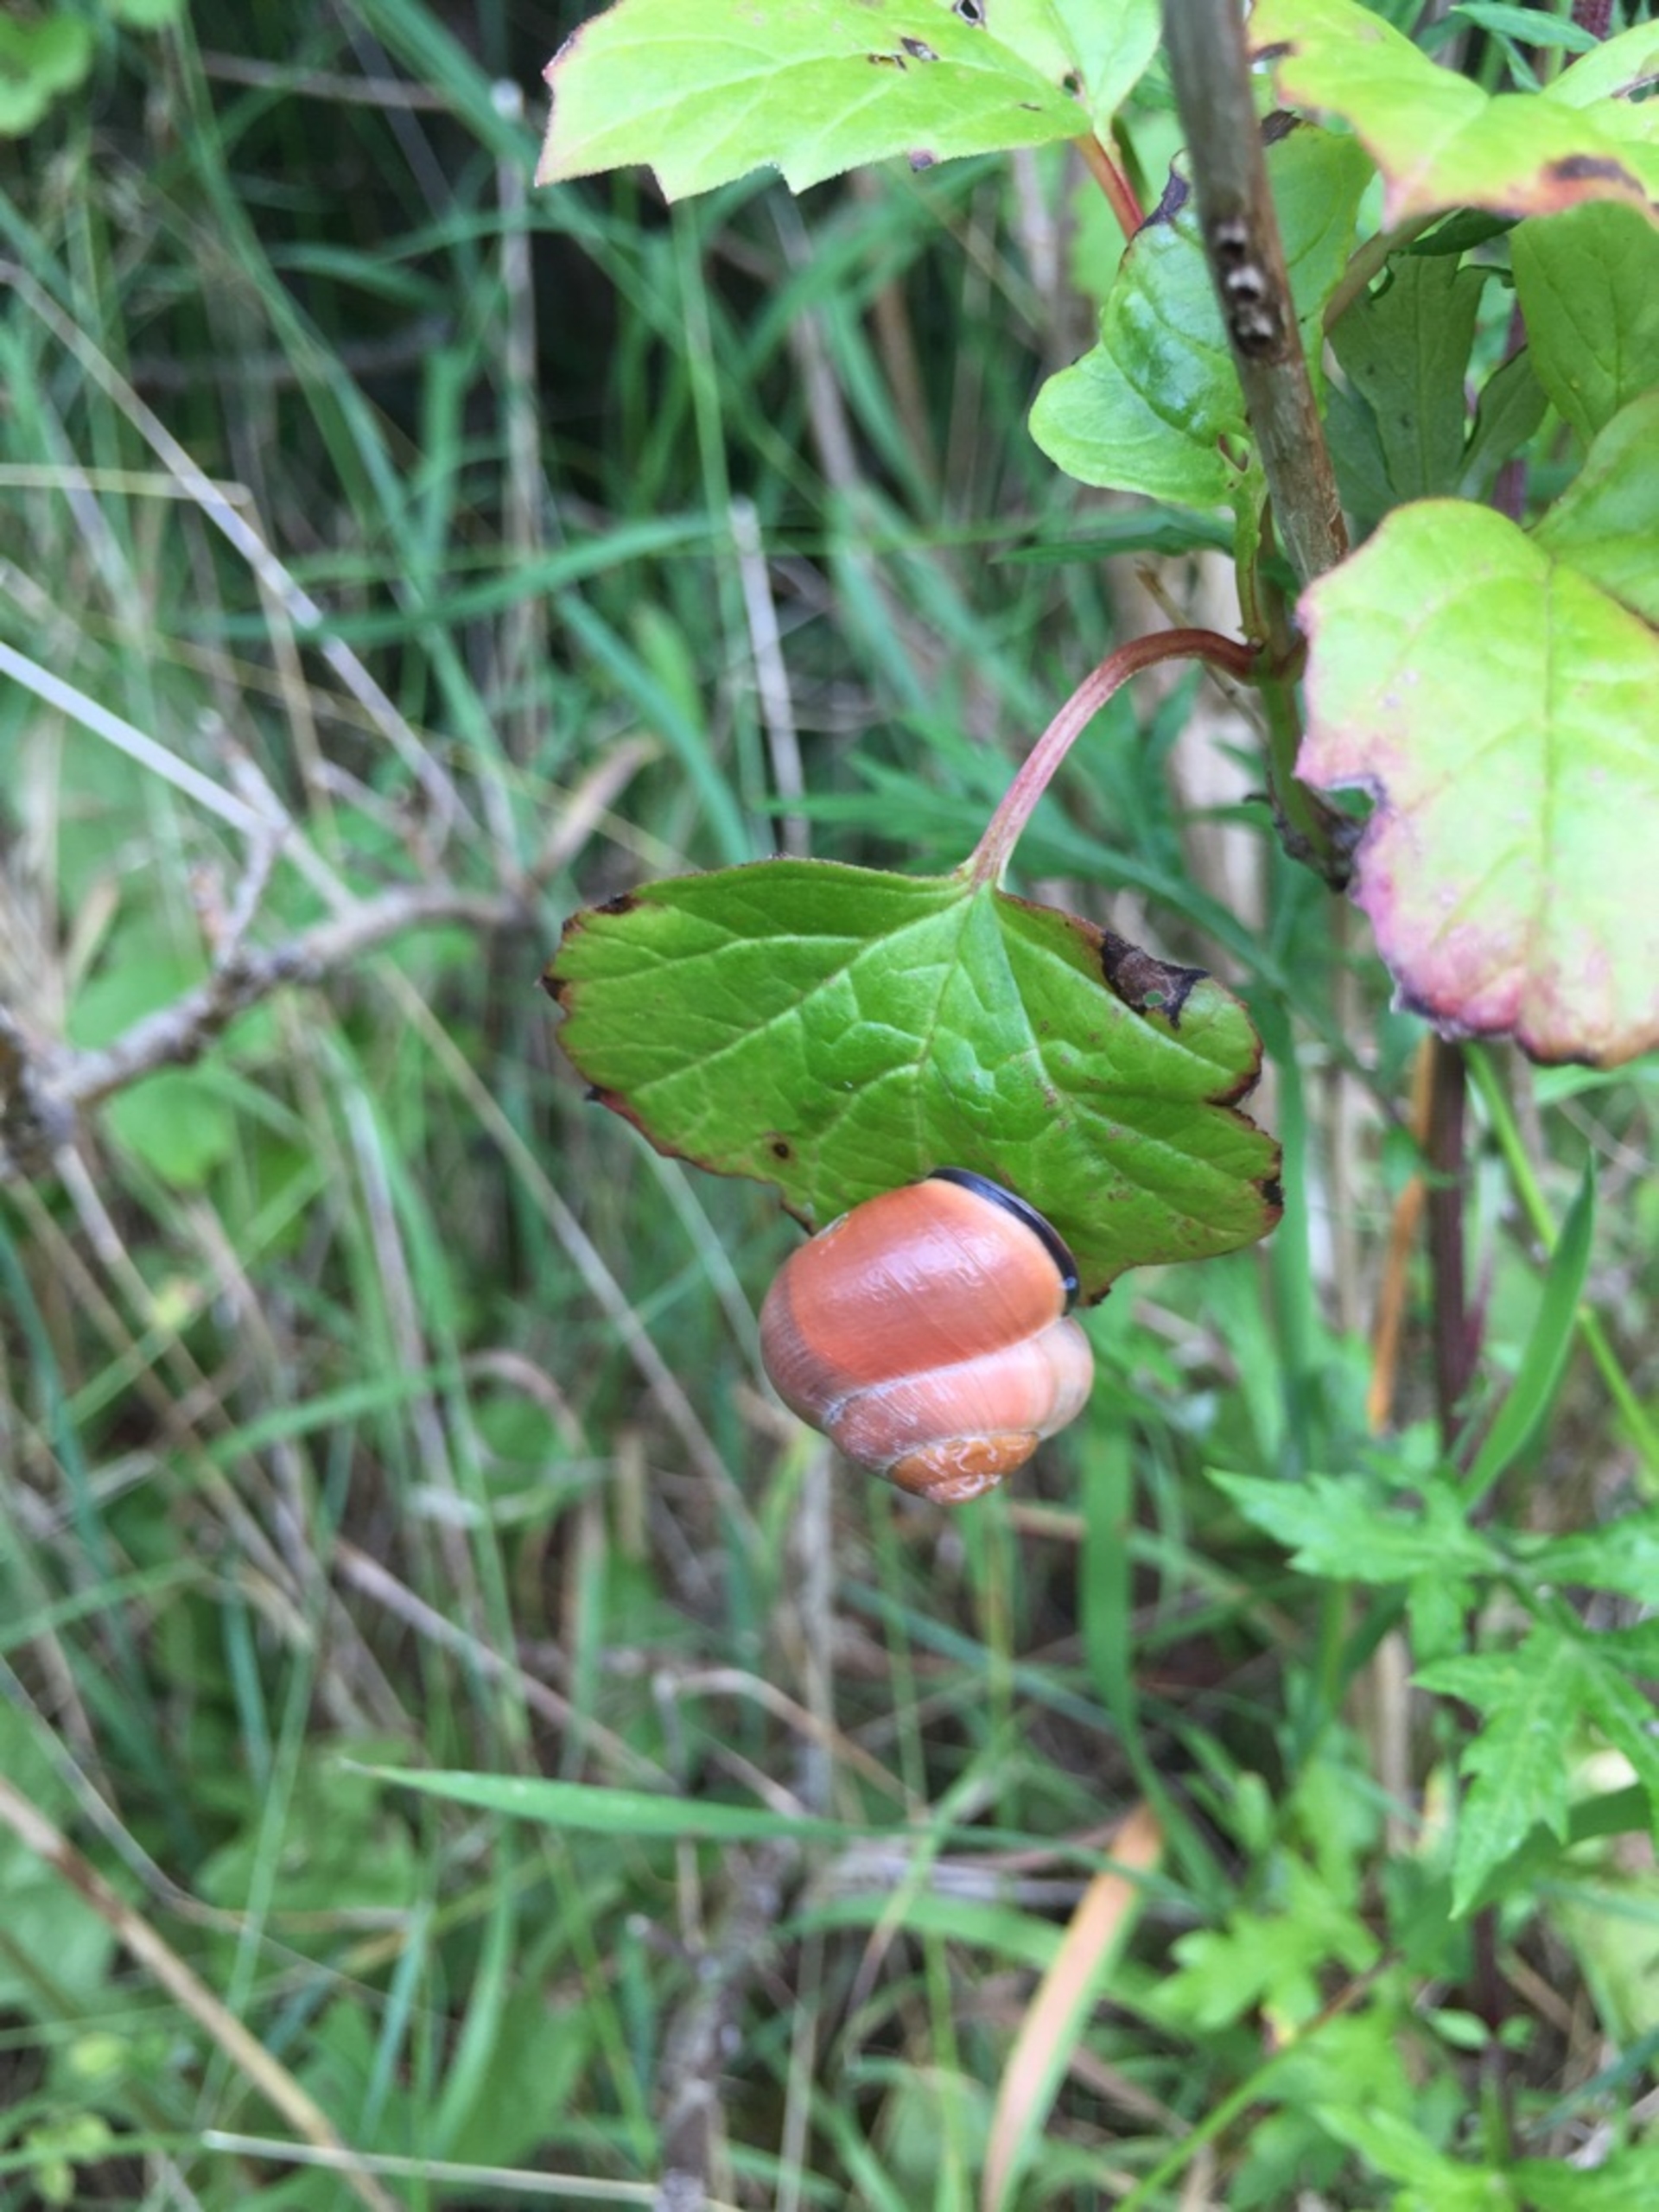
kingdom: Animalia
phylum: Mollusca
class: Gastropoda
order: Stylommatophora
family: Helicidae
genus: Cepaea
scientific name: Cepaea nemoralis
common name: Lundsnegl
